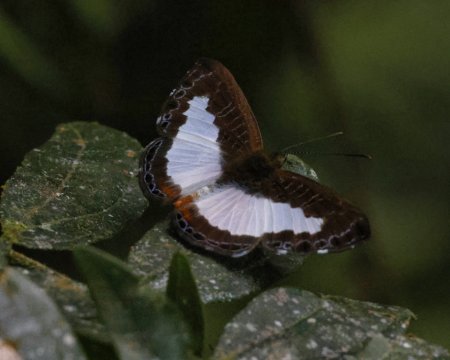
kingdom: Animalia
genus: Nymphidium
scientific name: Nymphidium azanoides
